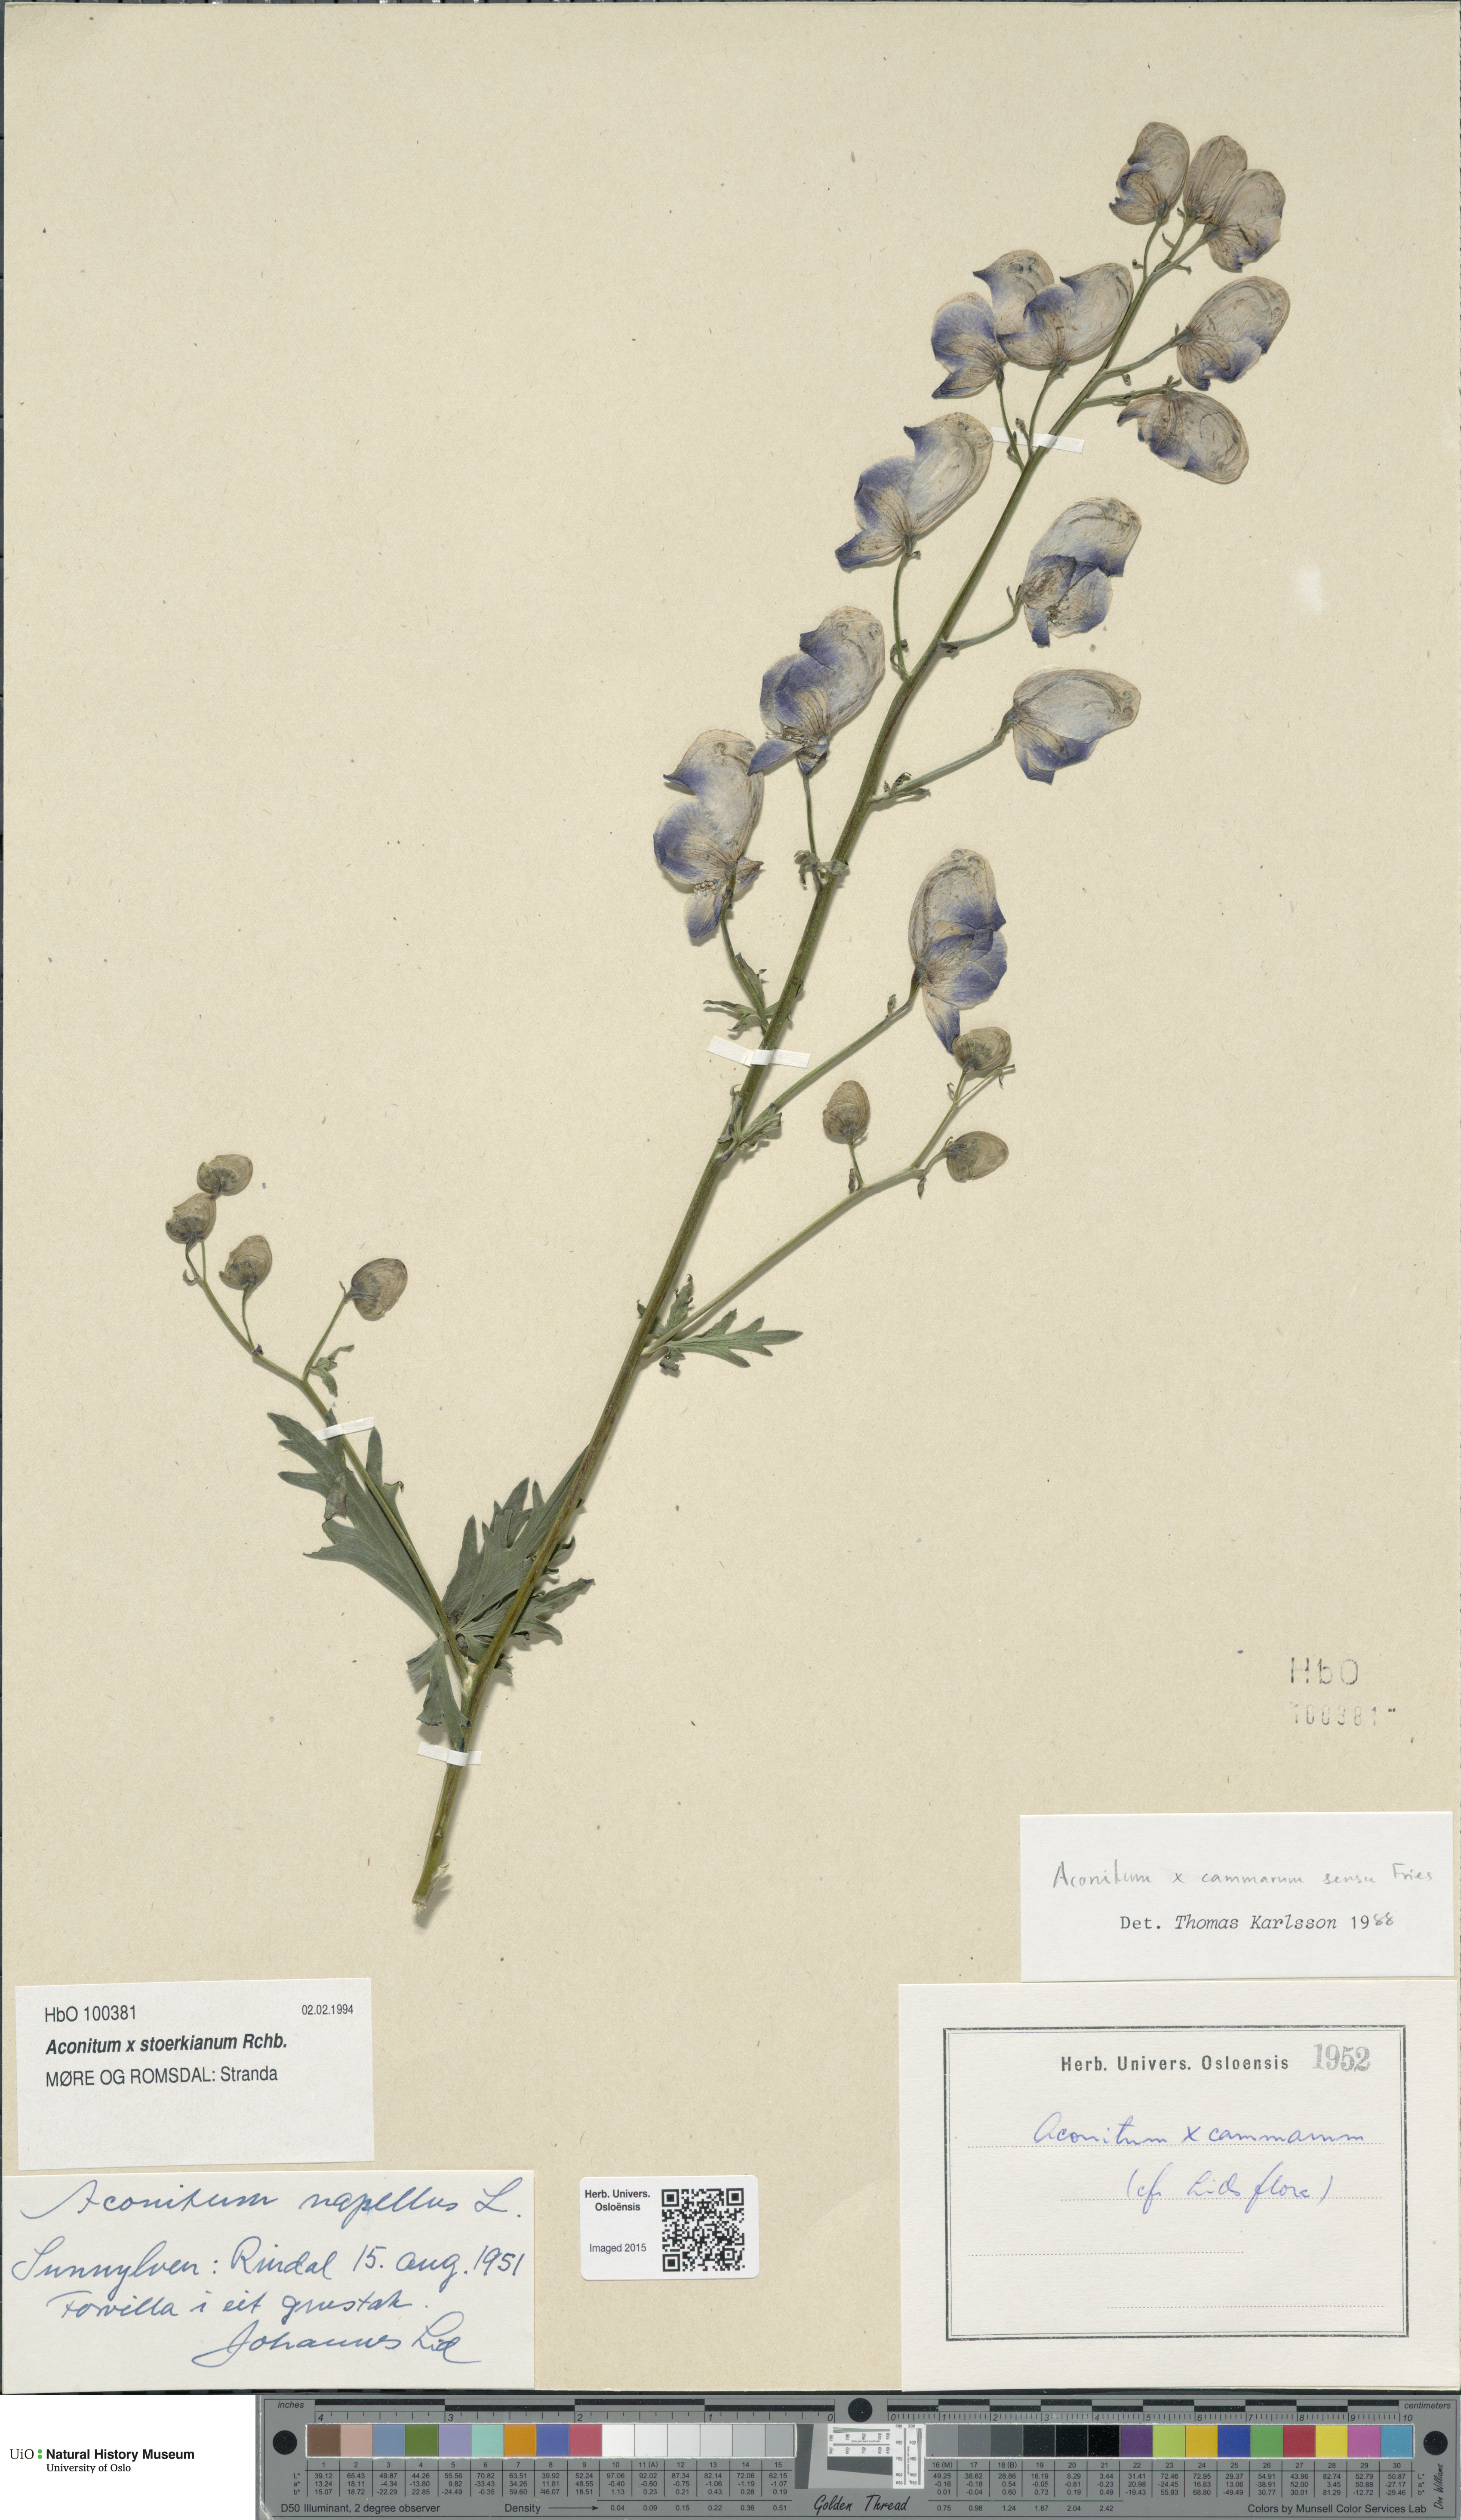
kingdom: Plantae
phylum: Tracheophyta
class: Magnoliopsida
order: Ranunculales
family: Ranunculaceae
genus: Aconitum
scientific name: Aconitum cammarum
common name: Hybrid monk's-hood
